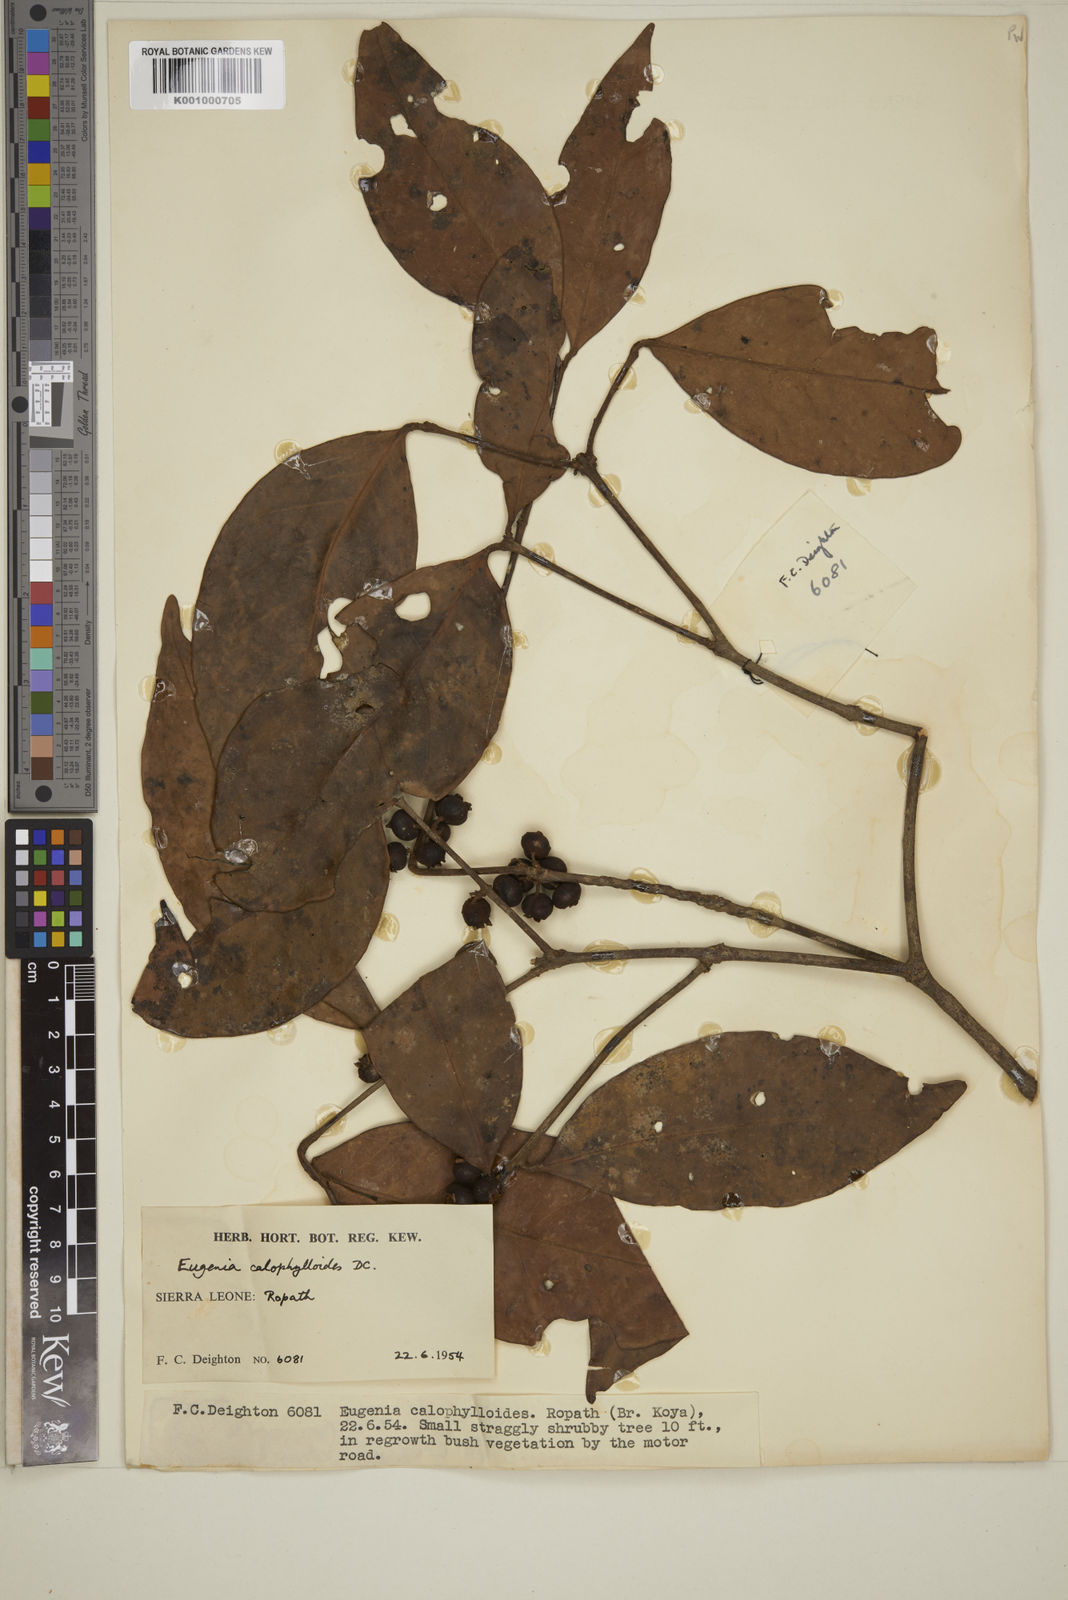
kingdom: Plantae
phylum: Tracheophyta
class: Magnoliopsida
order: Myrtales
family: Myrtaceae
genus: Eugenia
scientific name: Eugenia calophylloides
